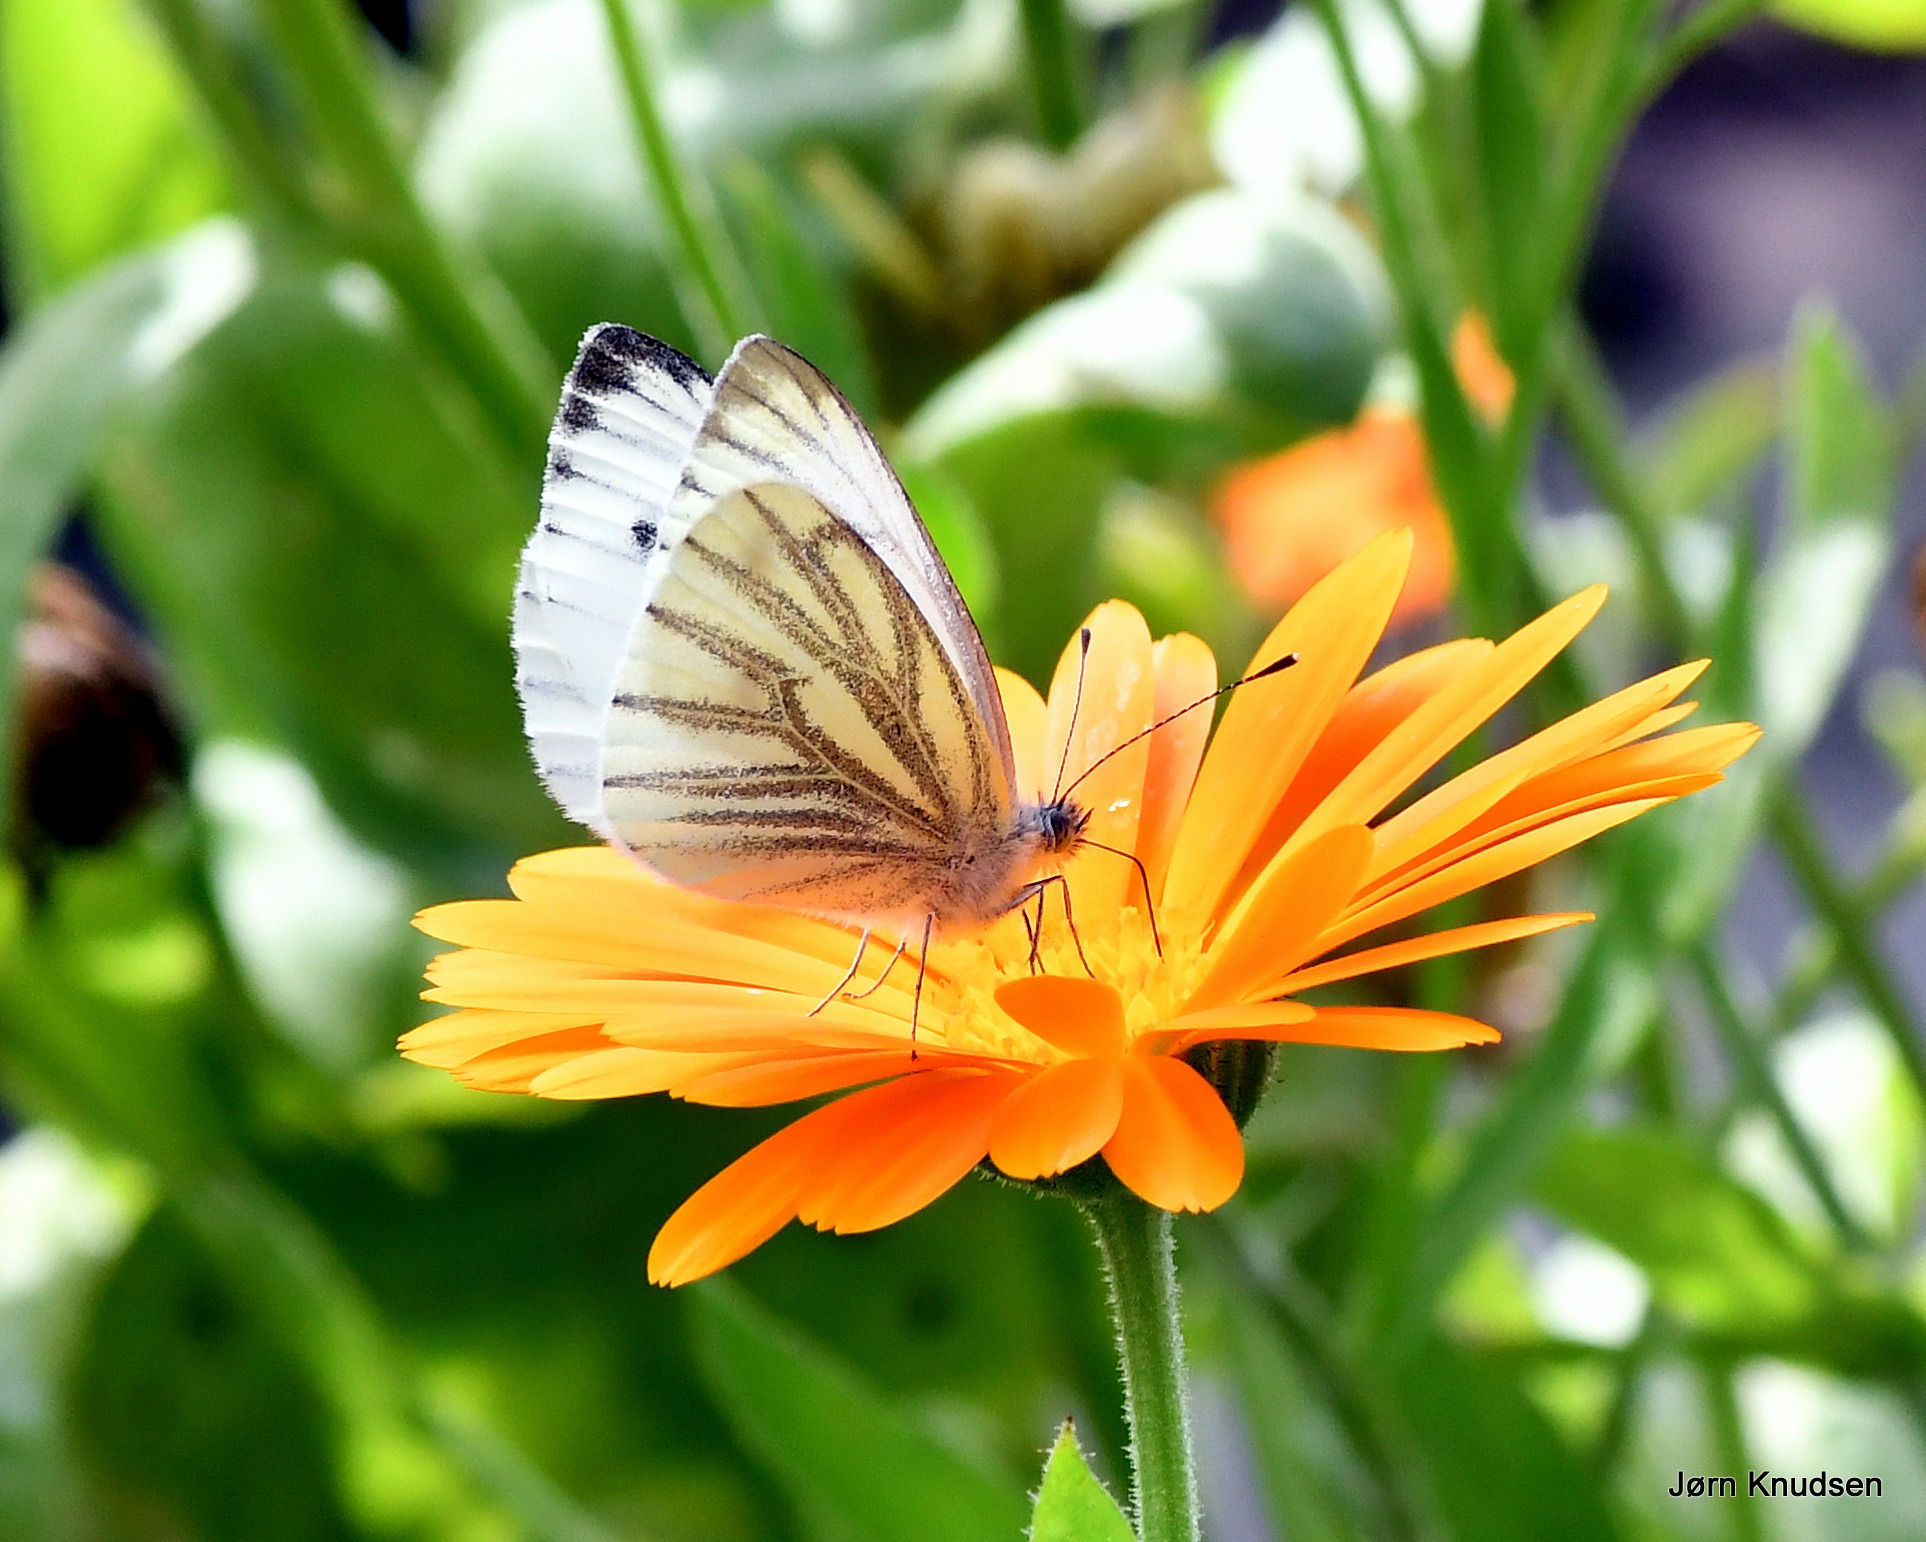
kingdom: Animalia
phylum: Arthropoda
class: Insecta
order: Lepidoptera
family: Pieridae
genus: Pieris
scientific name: Pieris napi
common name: Grønåret kålsommerfugl
